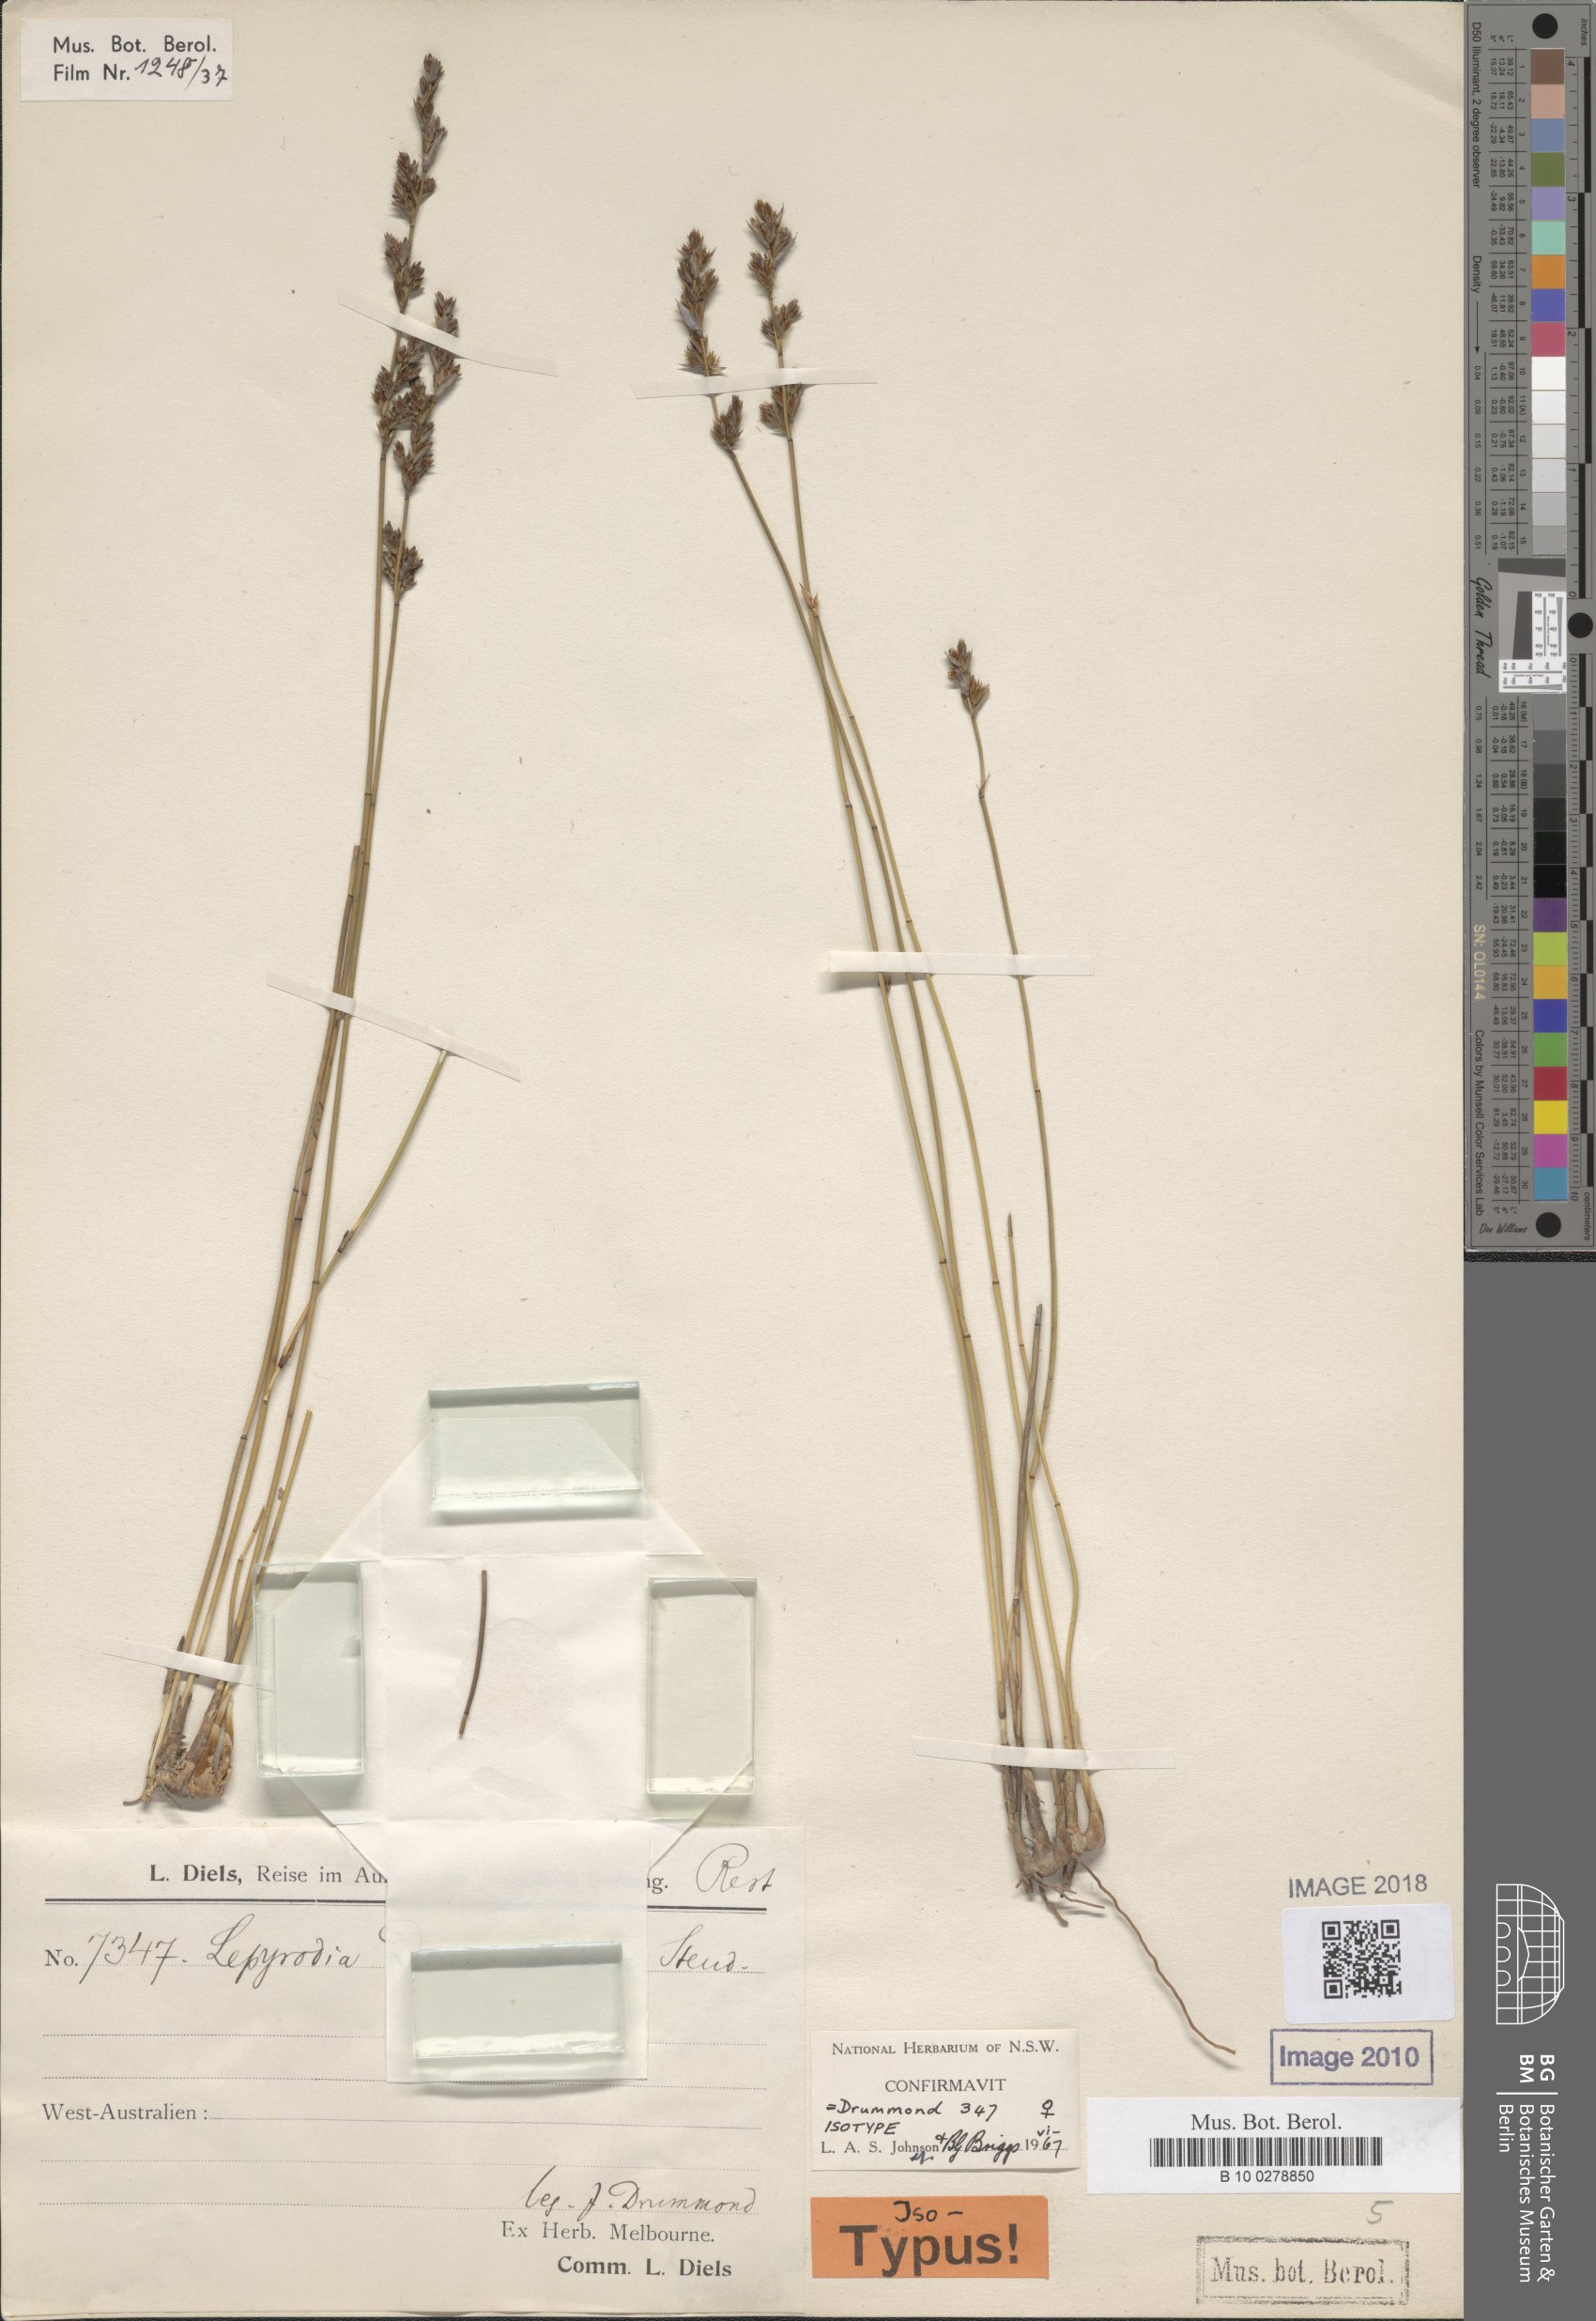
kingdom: Plantae
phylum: Tracheophyta
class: Liliopsida
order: Poales
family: Restionaceae
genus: Lepyrodia
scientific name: Lepyrodia drummondiana
